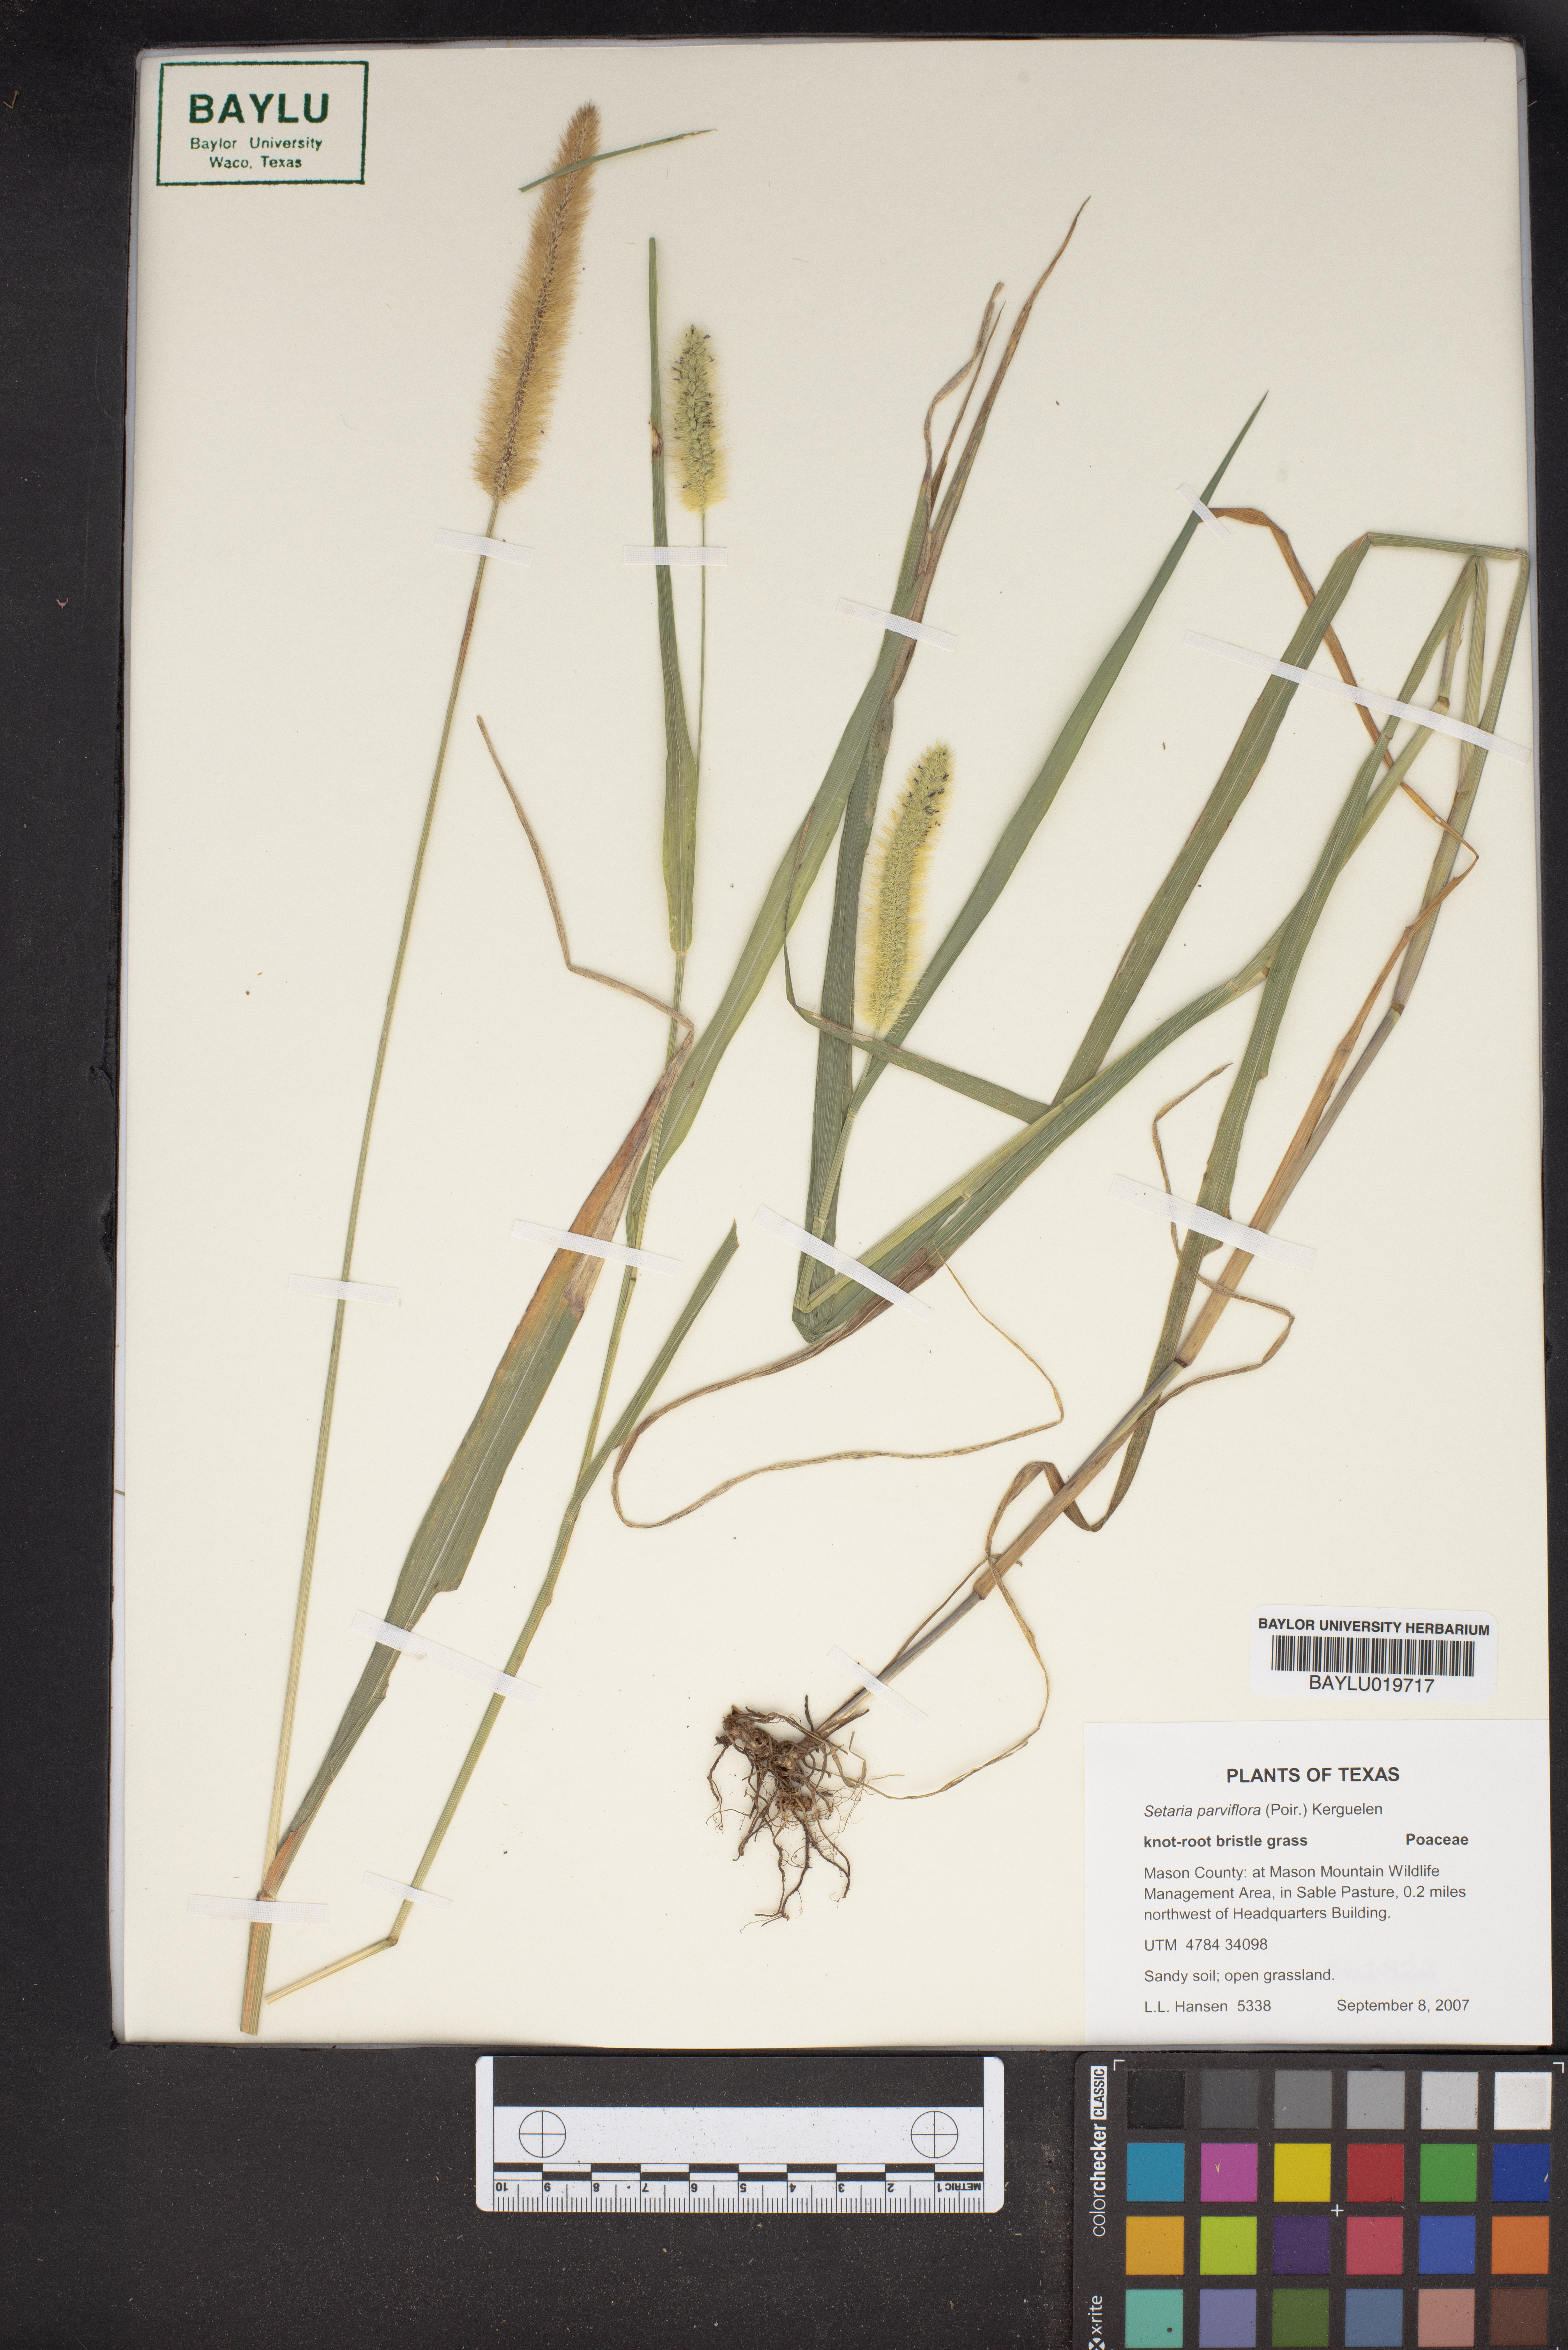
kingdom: Plantae
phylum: Tracheophyta
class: Liliopsida
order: Poales
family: Poaceae
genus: Setaria
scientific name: Setaria parviflora
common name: Knotroot bristle-grass
